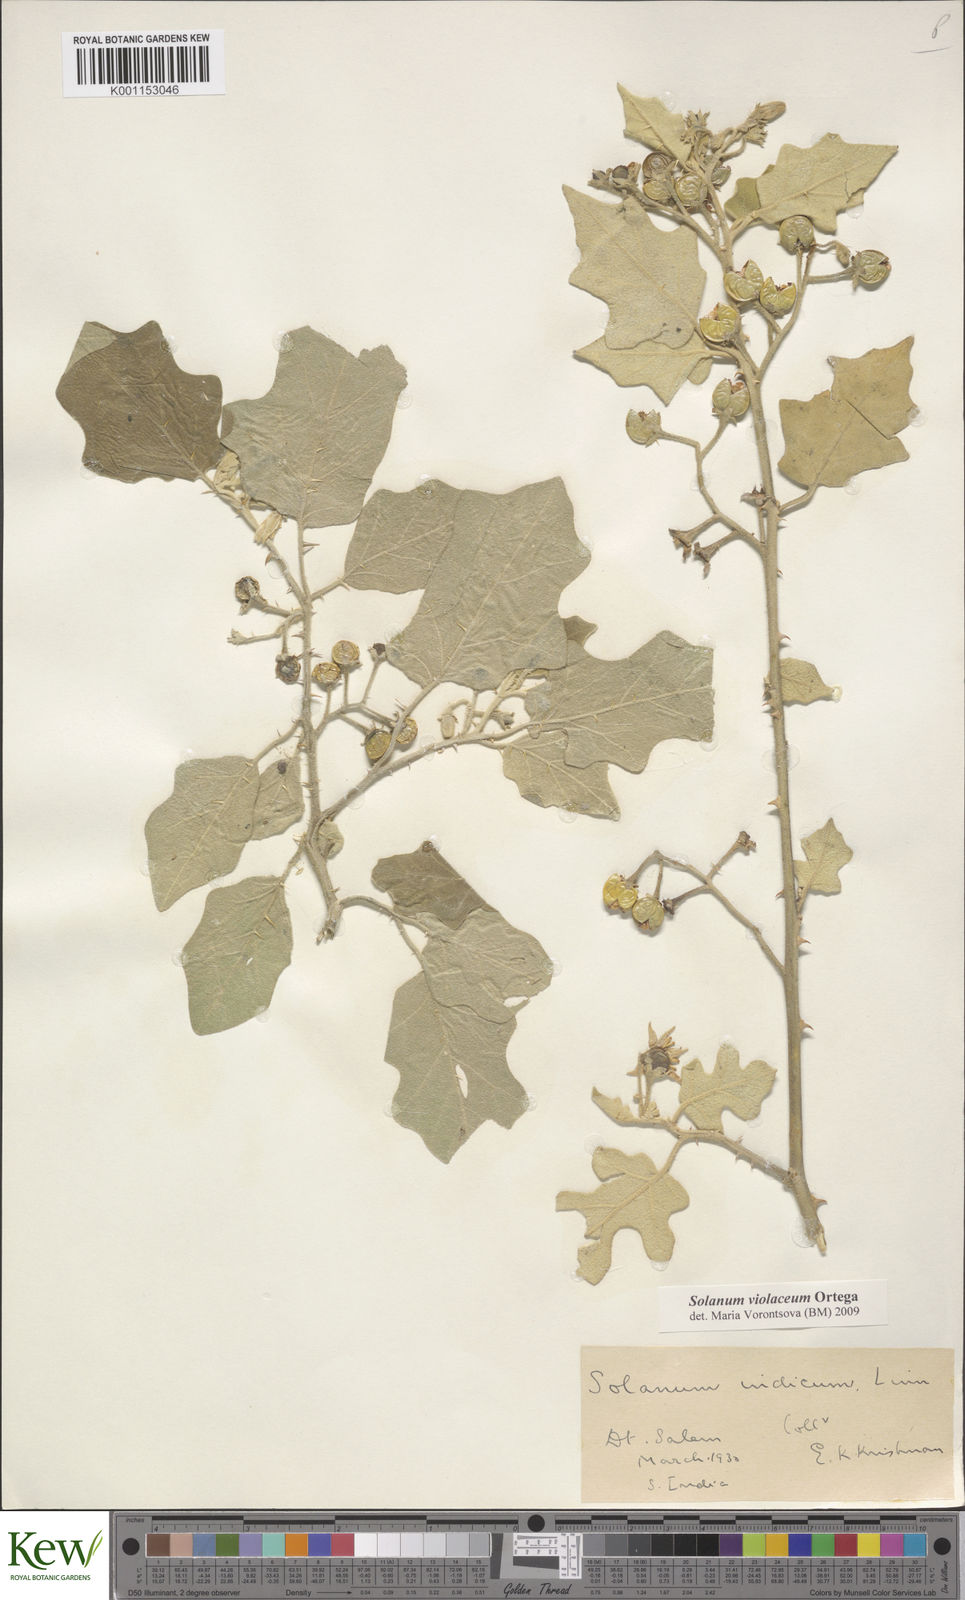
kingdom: Plantae
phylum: Tracheophyta
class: Magnoliopsida
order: Solanales
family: Solanaceae
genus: Solanum
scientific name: Solanum violaceum
